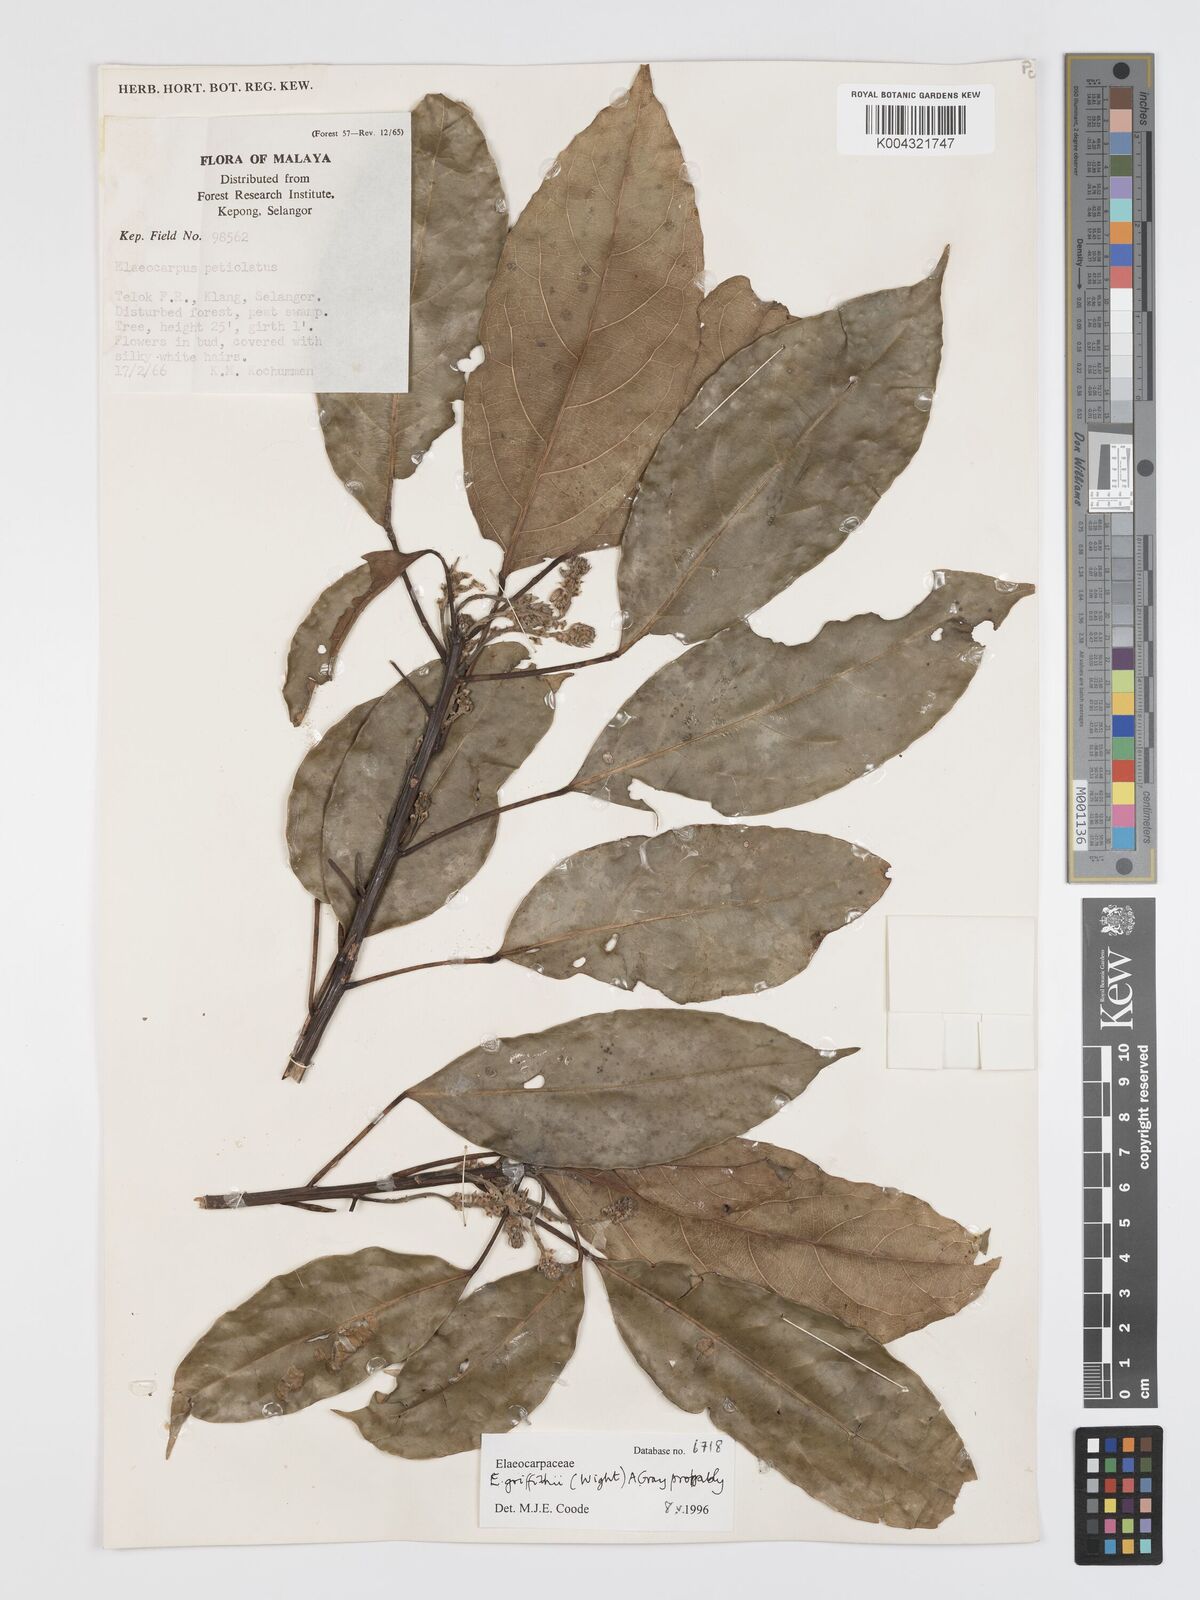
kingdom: Plantae
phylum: Tracheophyta
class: Magnoliopsida
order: Oxalidales
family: Elaeocarpaceae
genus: Elaeocarpus
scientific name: Elaeocarpus griffithii
